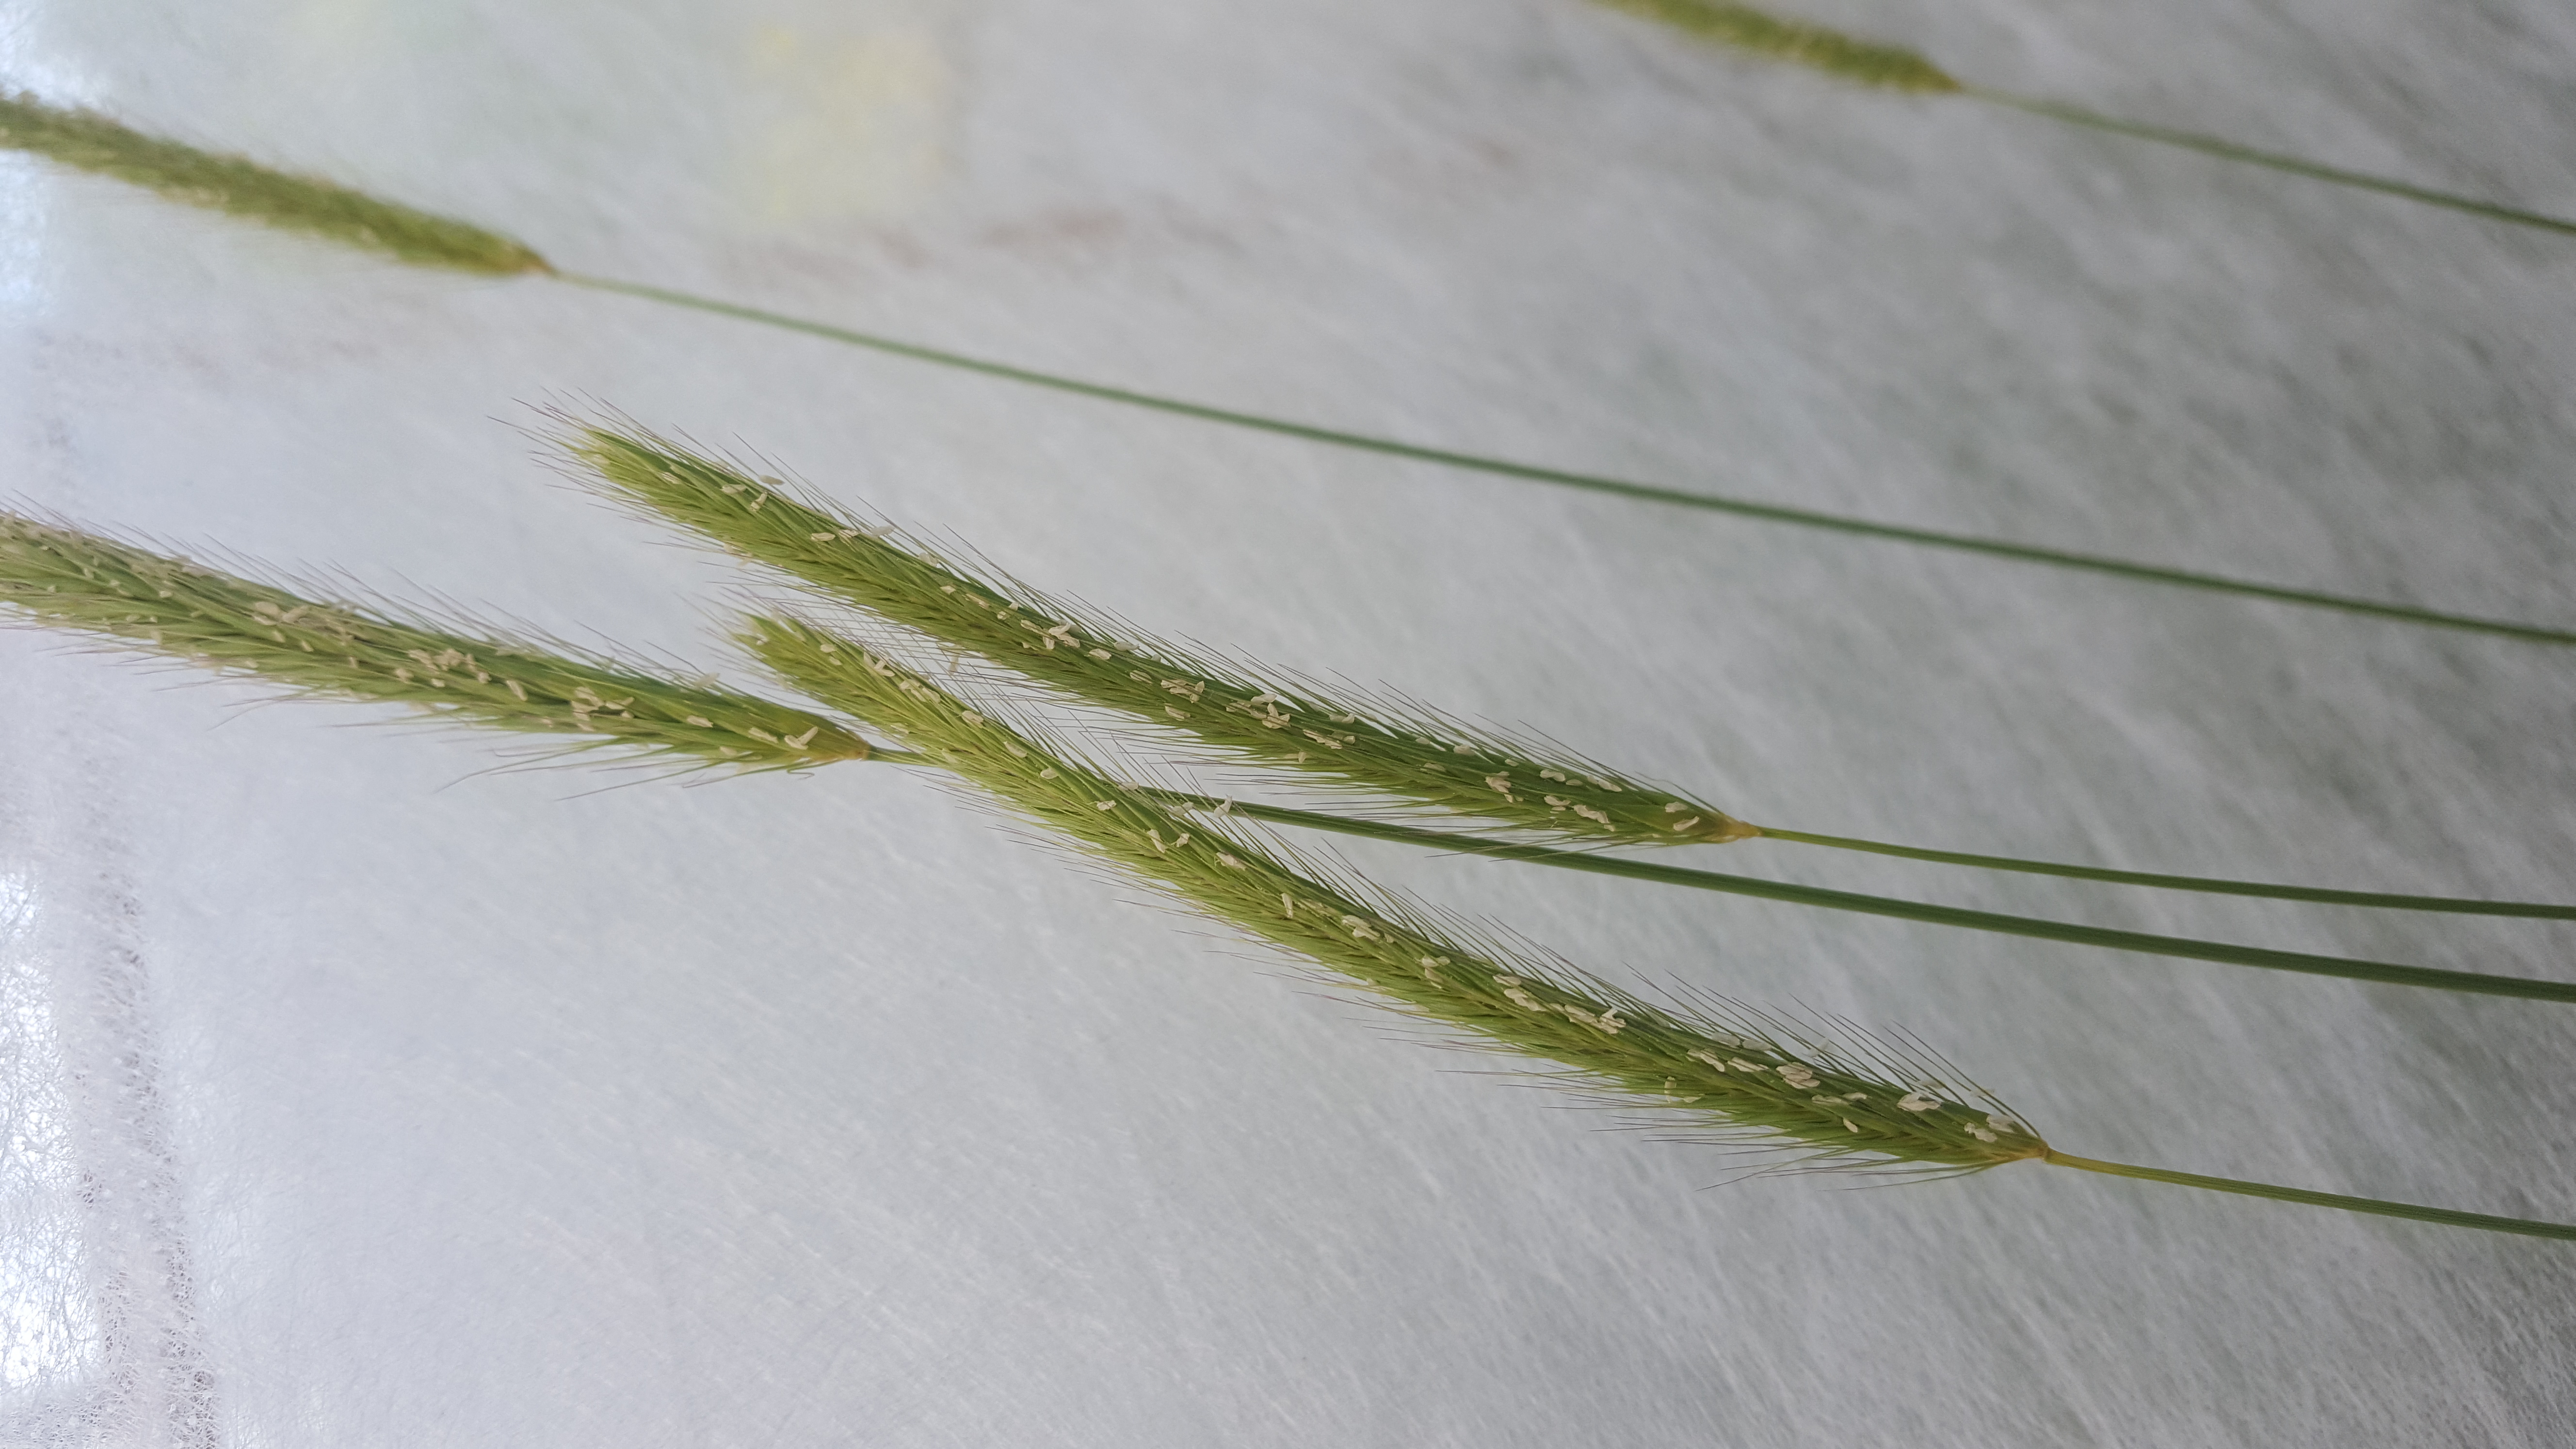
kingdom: Plantae
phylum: Tracheophyta
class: Liliopsida
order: Poales
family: Poaceae
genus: Hordeum
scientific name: Hordeum brachyantherum
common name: Meadow barley
